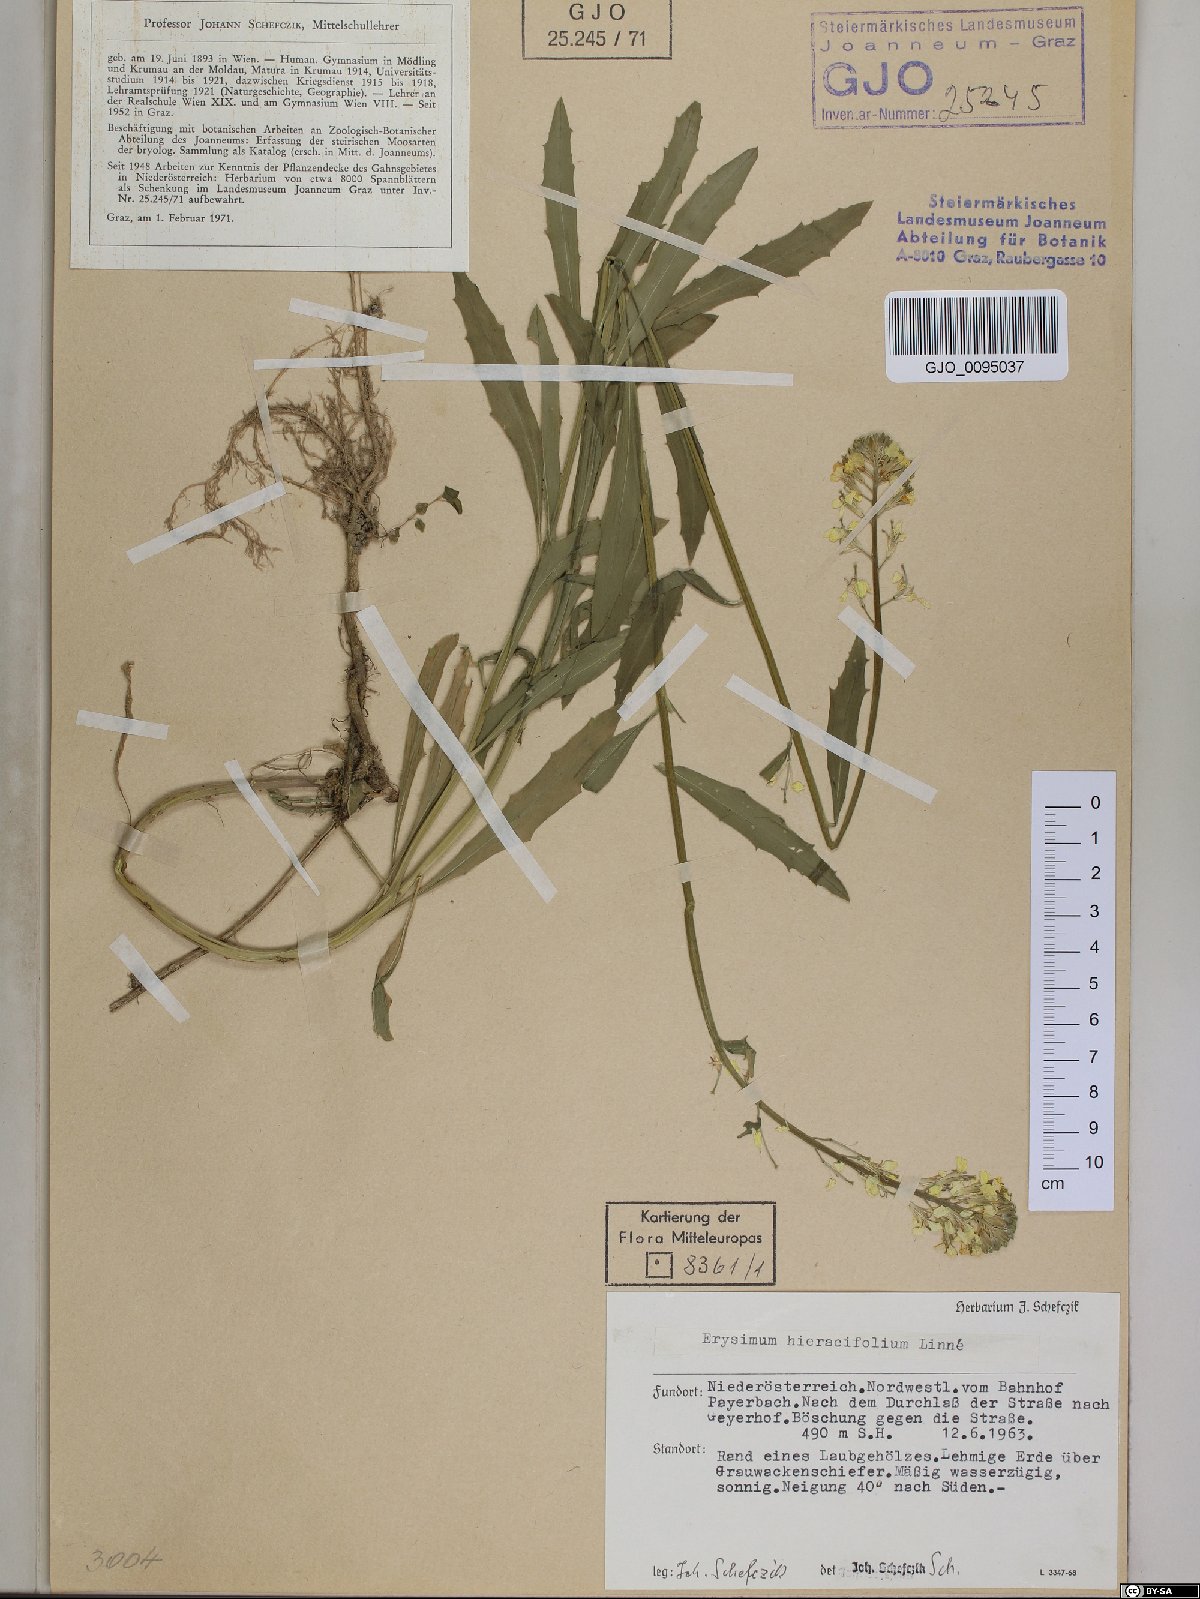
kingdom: Plantae
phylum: Tracheophyta
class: Magnoliopsida
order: Brassicales
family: Brassicaceae
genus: Erysimum
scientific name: Erysimum hieraciifolium
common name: European wallflower
